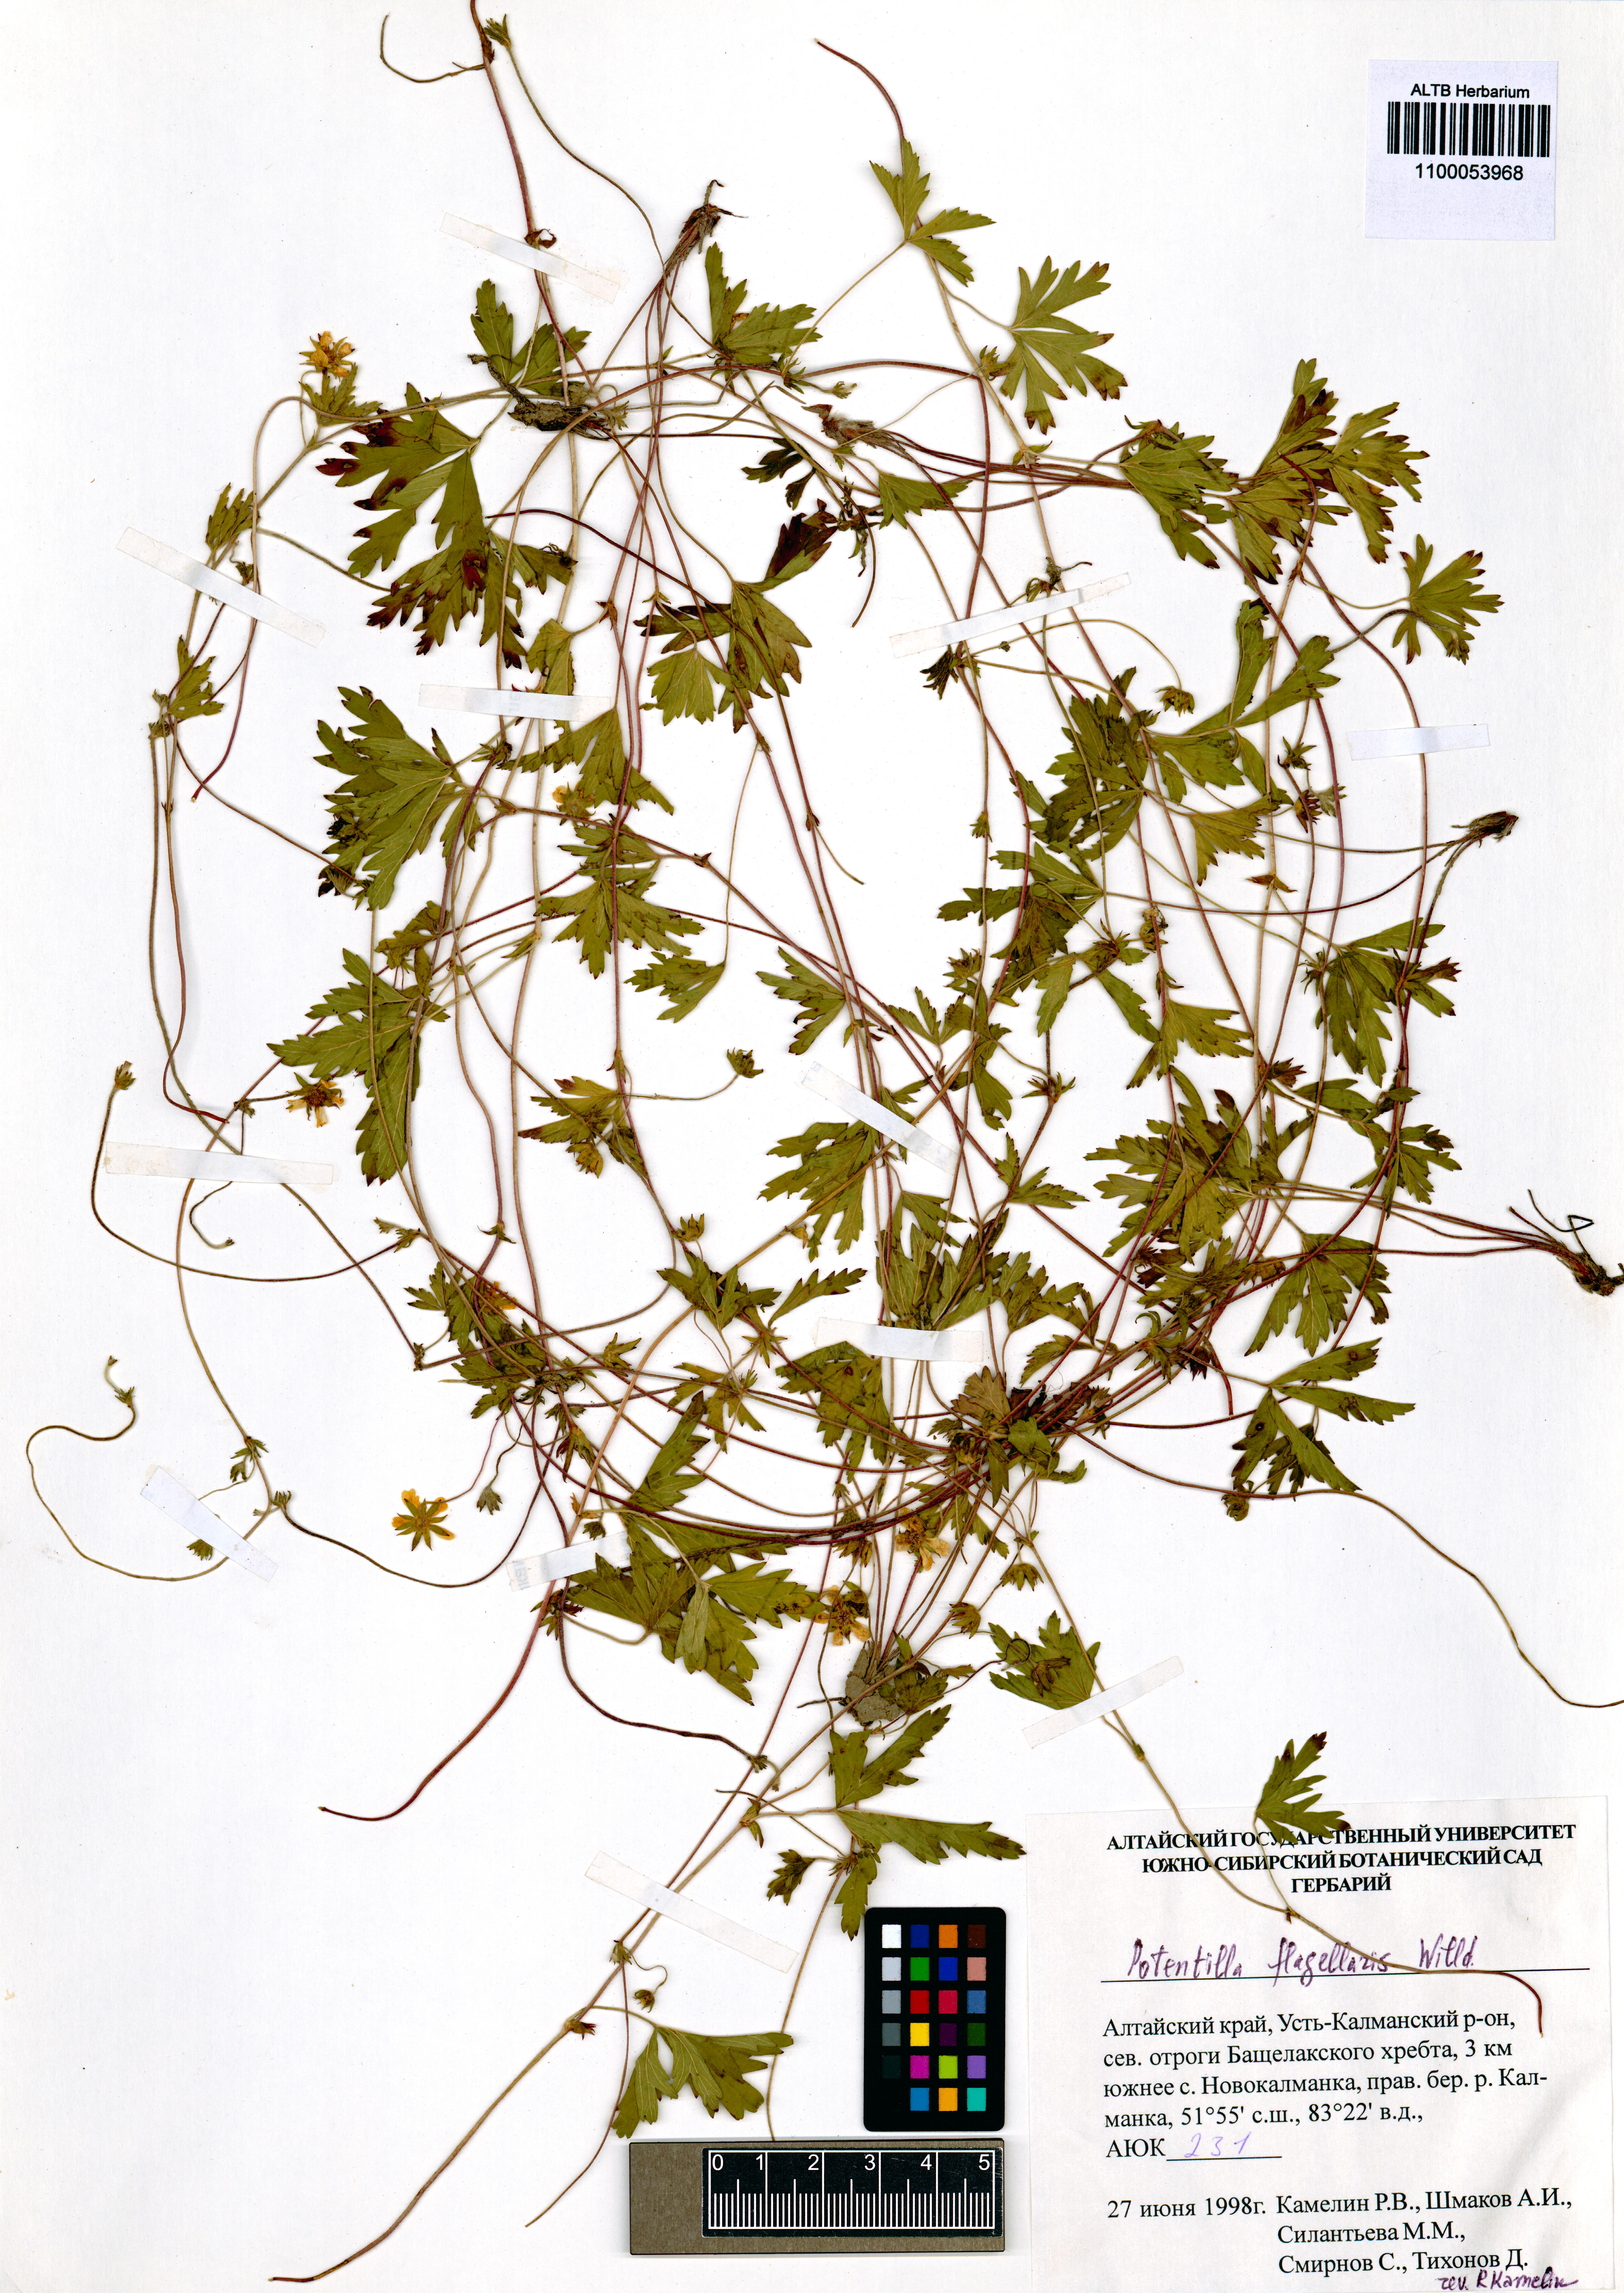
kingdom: Plantae
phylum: Tracheophyta
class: Magnoliopsida
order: Rosales
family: Rosaceae
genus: Potentilla
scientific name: Potentilla flagellaris
